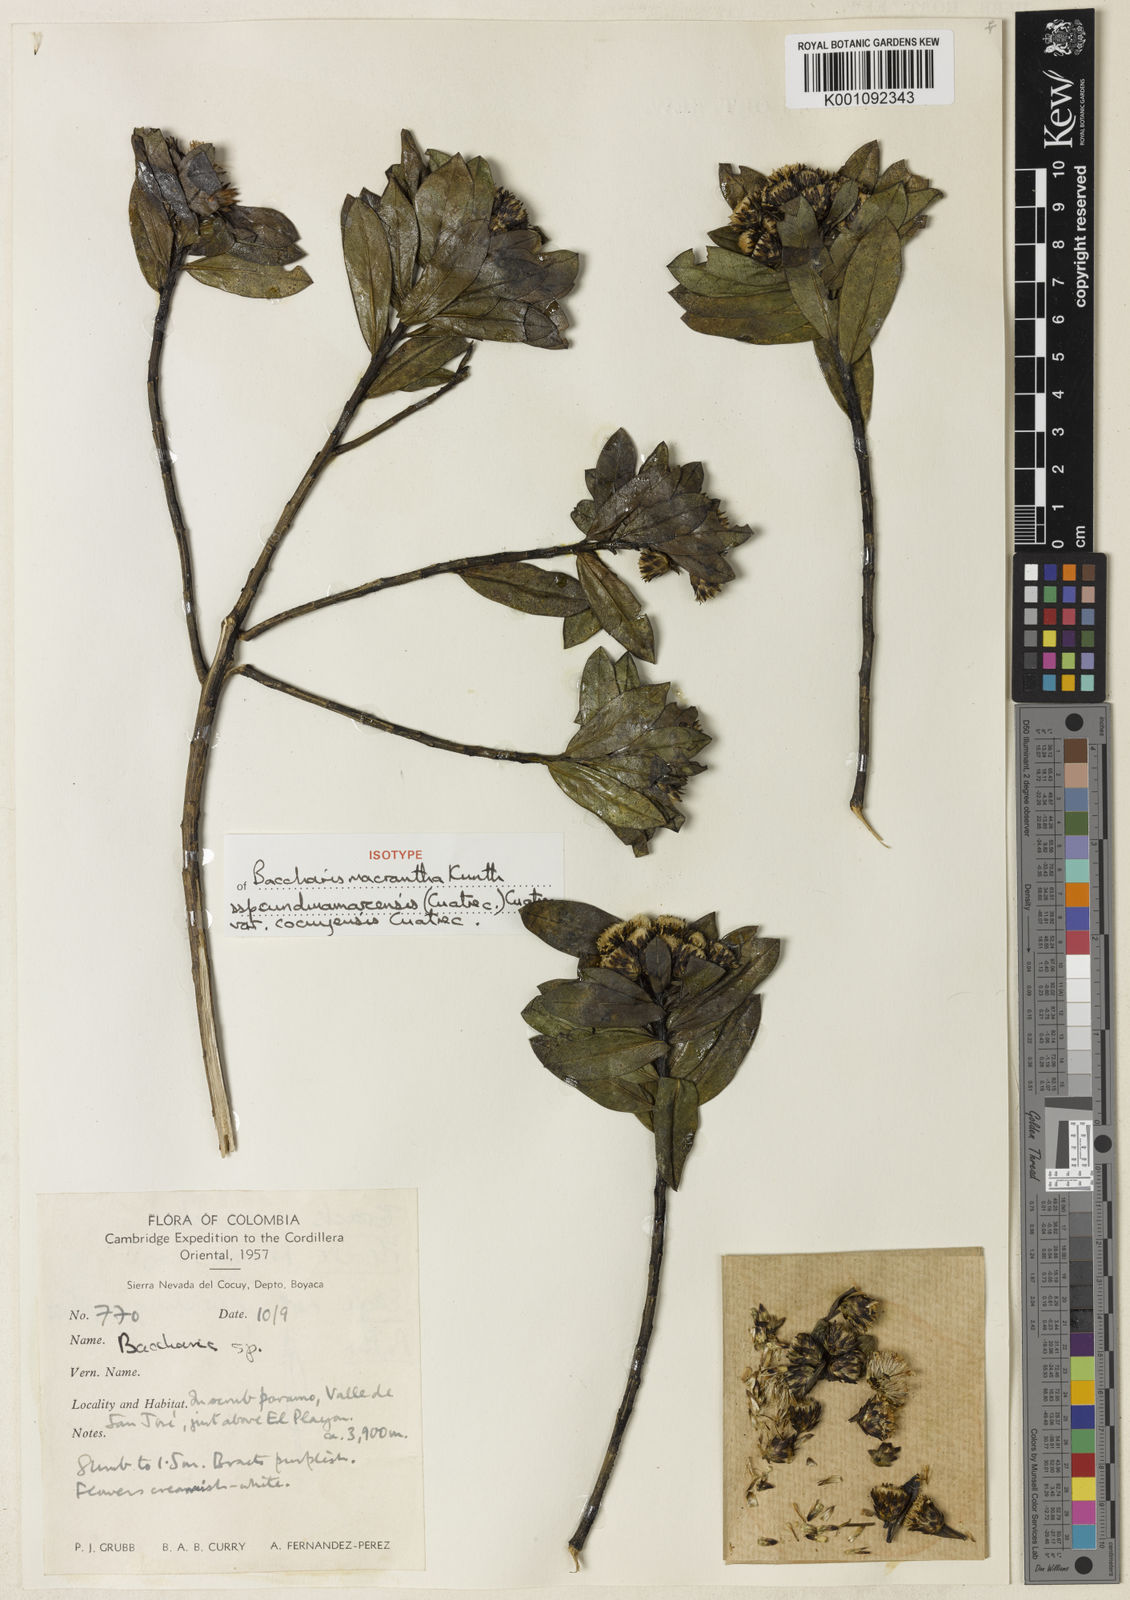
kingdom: Plantae
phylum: Tracheophyta
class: Magnoliopsida
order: Asterales
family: Asteraceae
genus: Baccharis
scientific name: Baccharis macrantha
